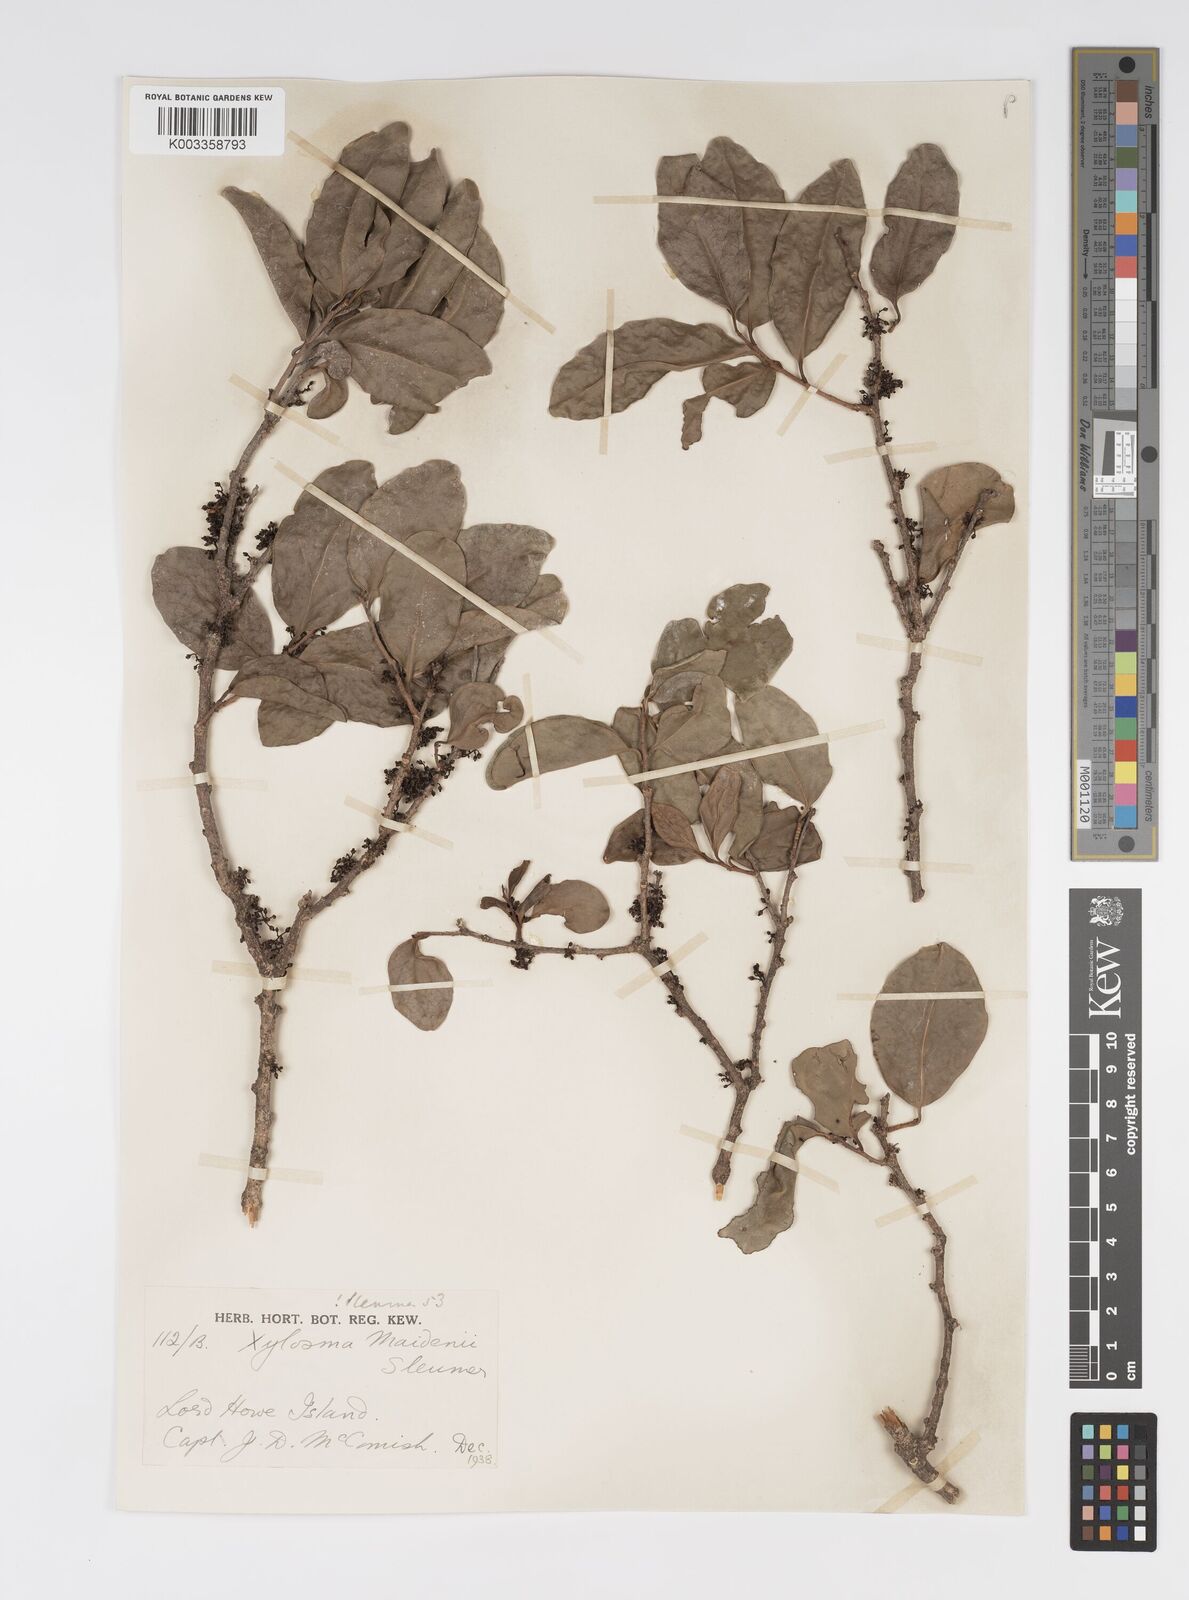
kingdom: Plantae
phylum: Tracheophyta
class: Magnoliopsida
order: Malpighiales
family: Salicaceae
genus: Xylosma
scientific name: Xylosma maidenii
